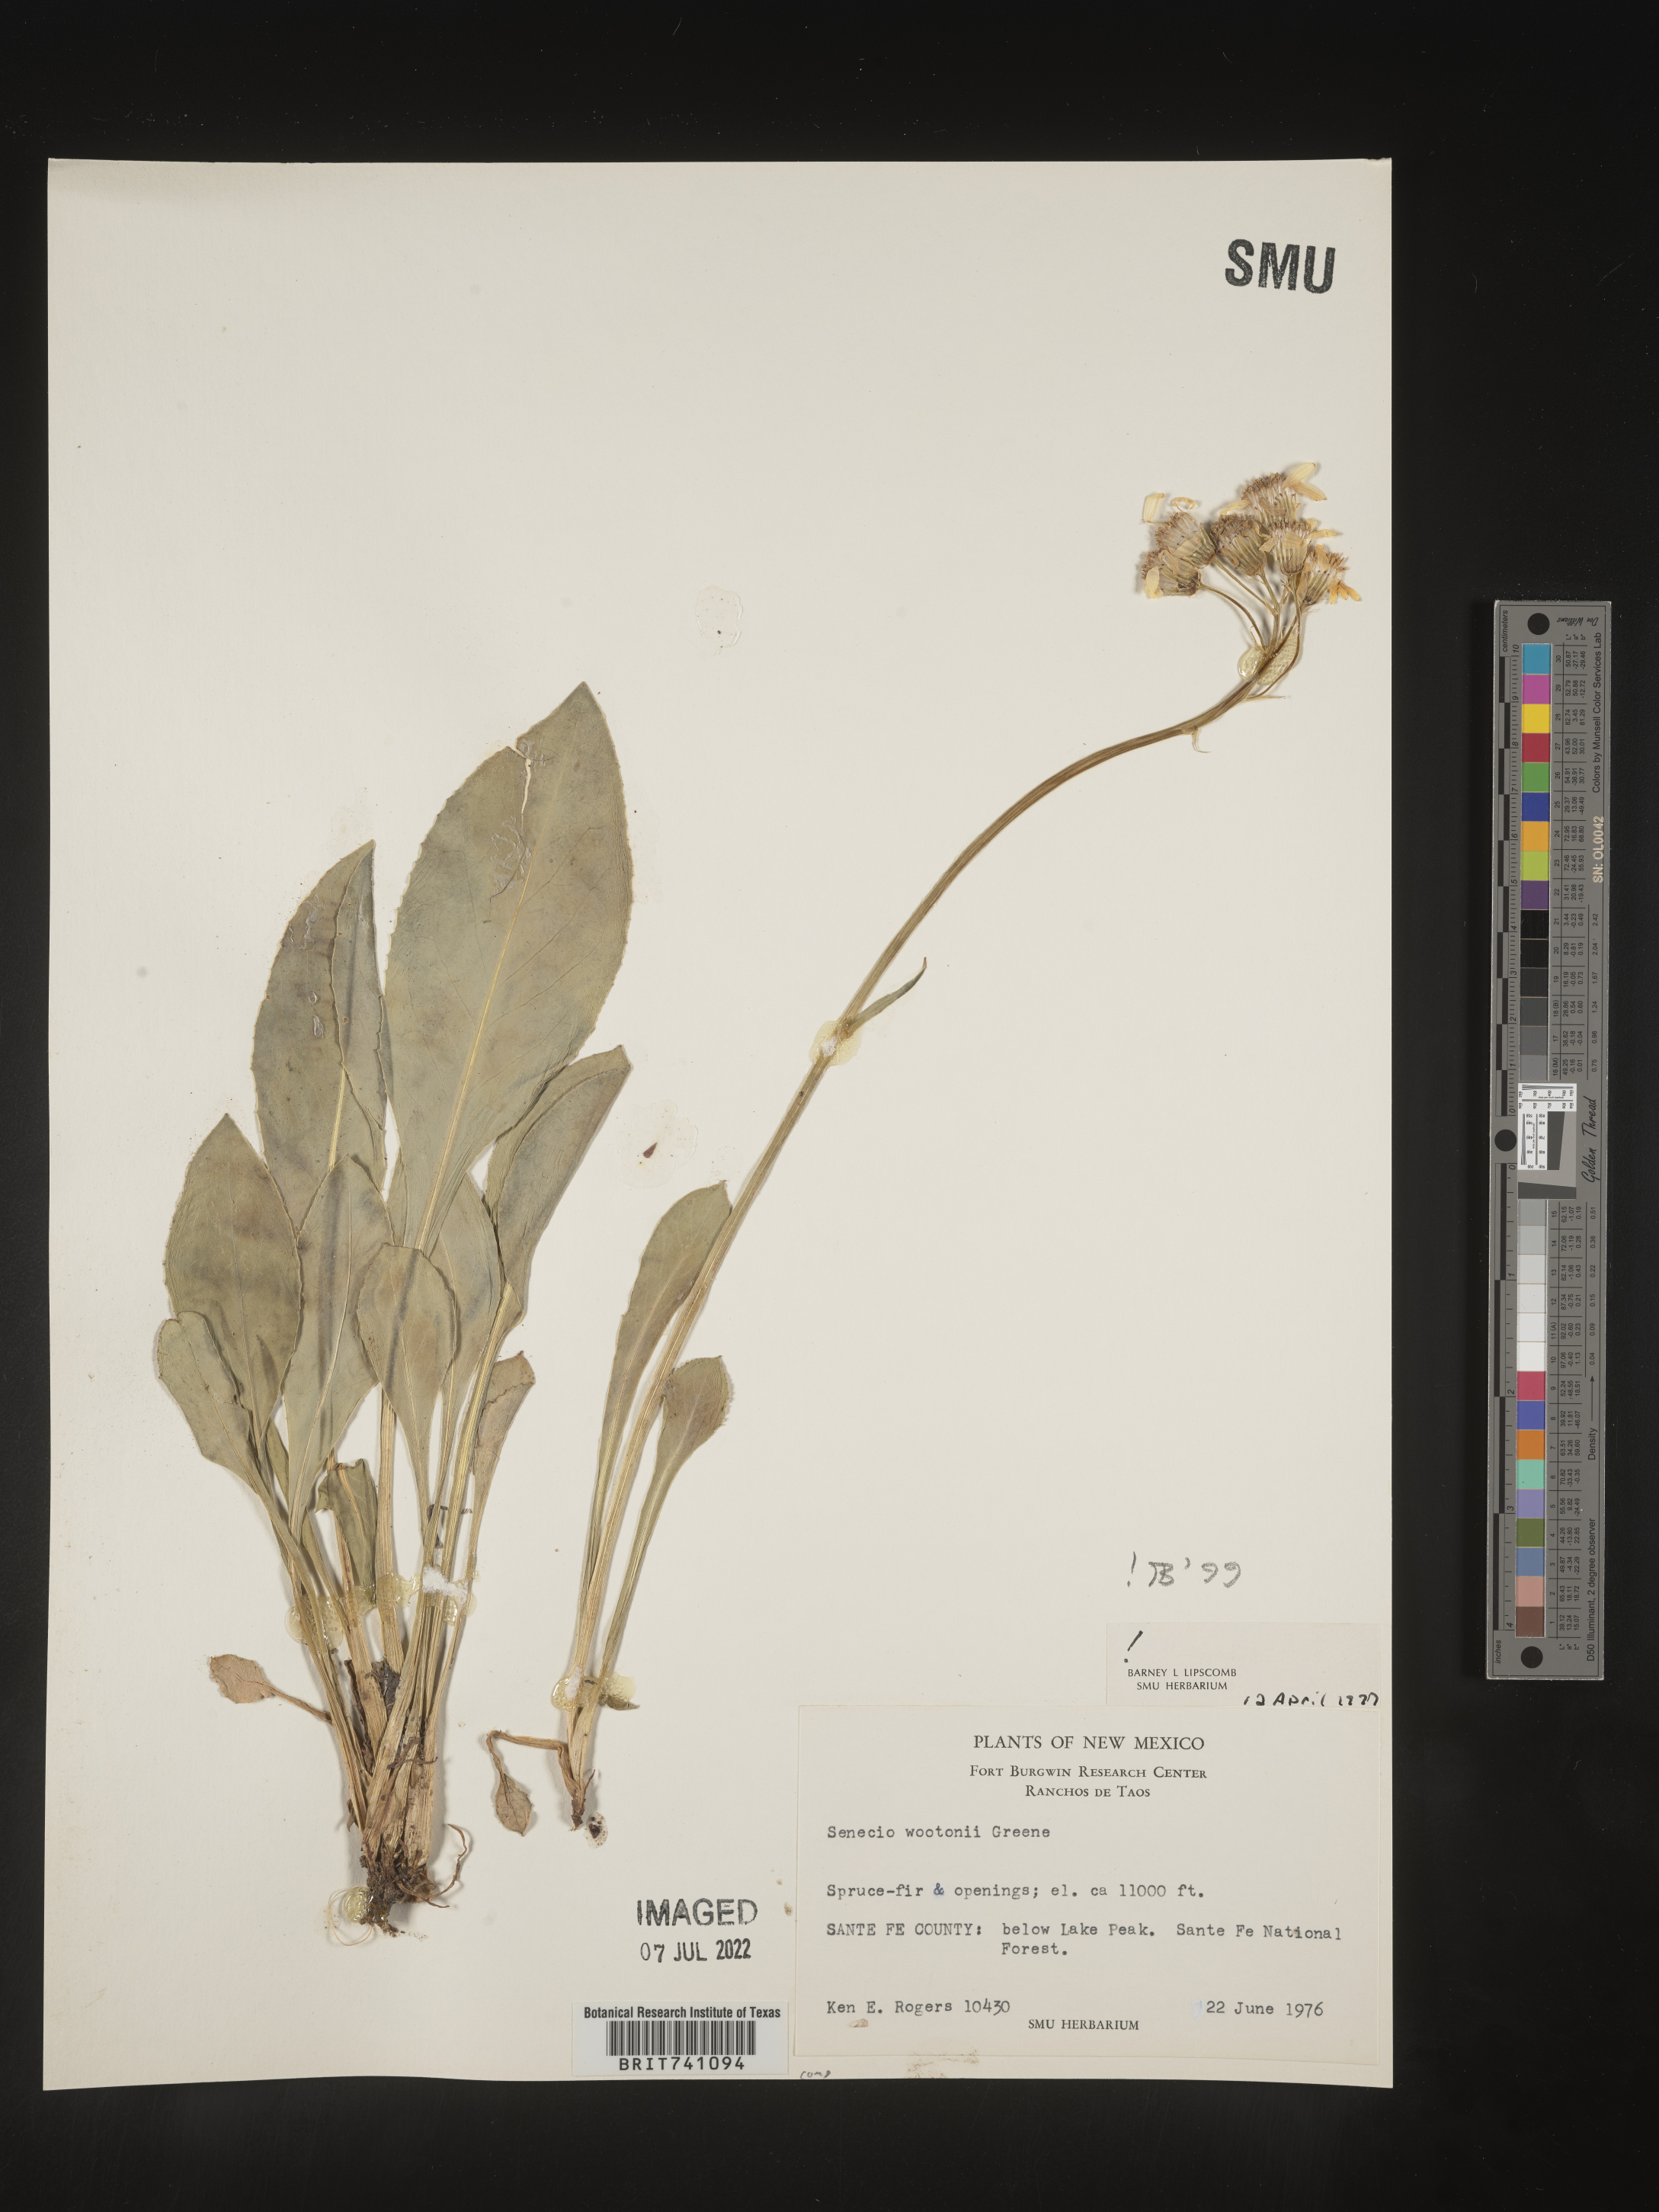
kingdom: Plantae
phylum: Tracheophyta
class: Magnoliopsida
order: Asterales
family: Asteraceae
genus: Senecio
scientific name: Senecio wootonii
